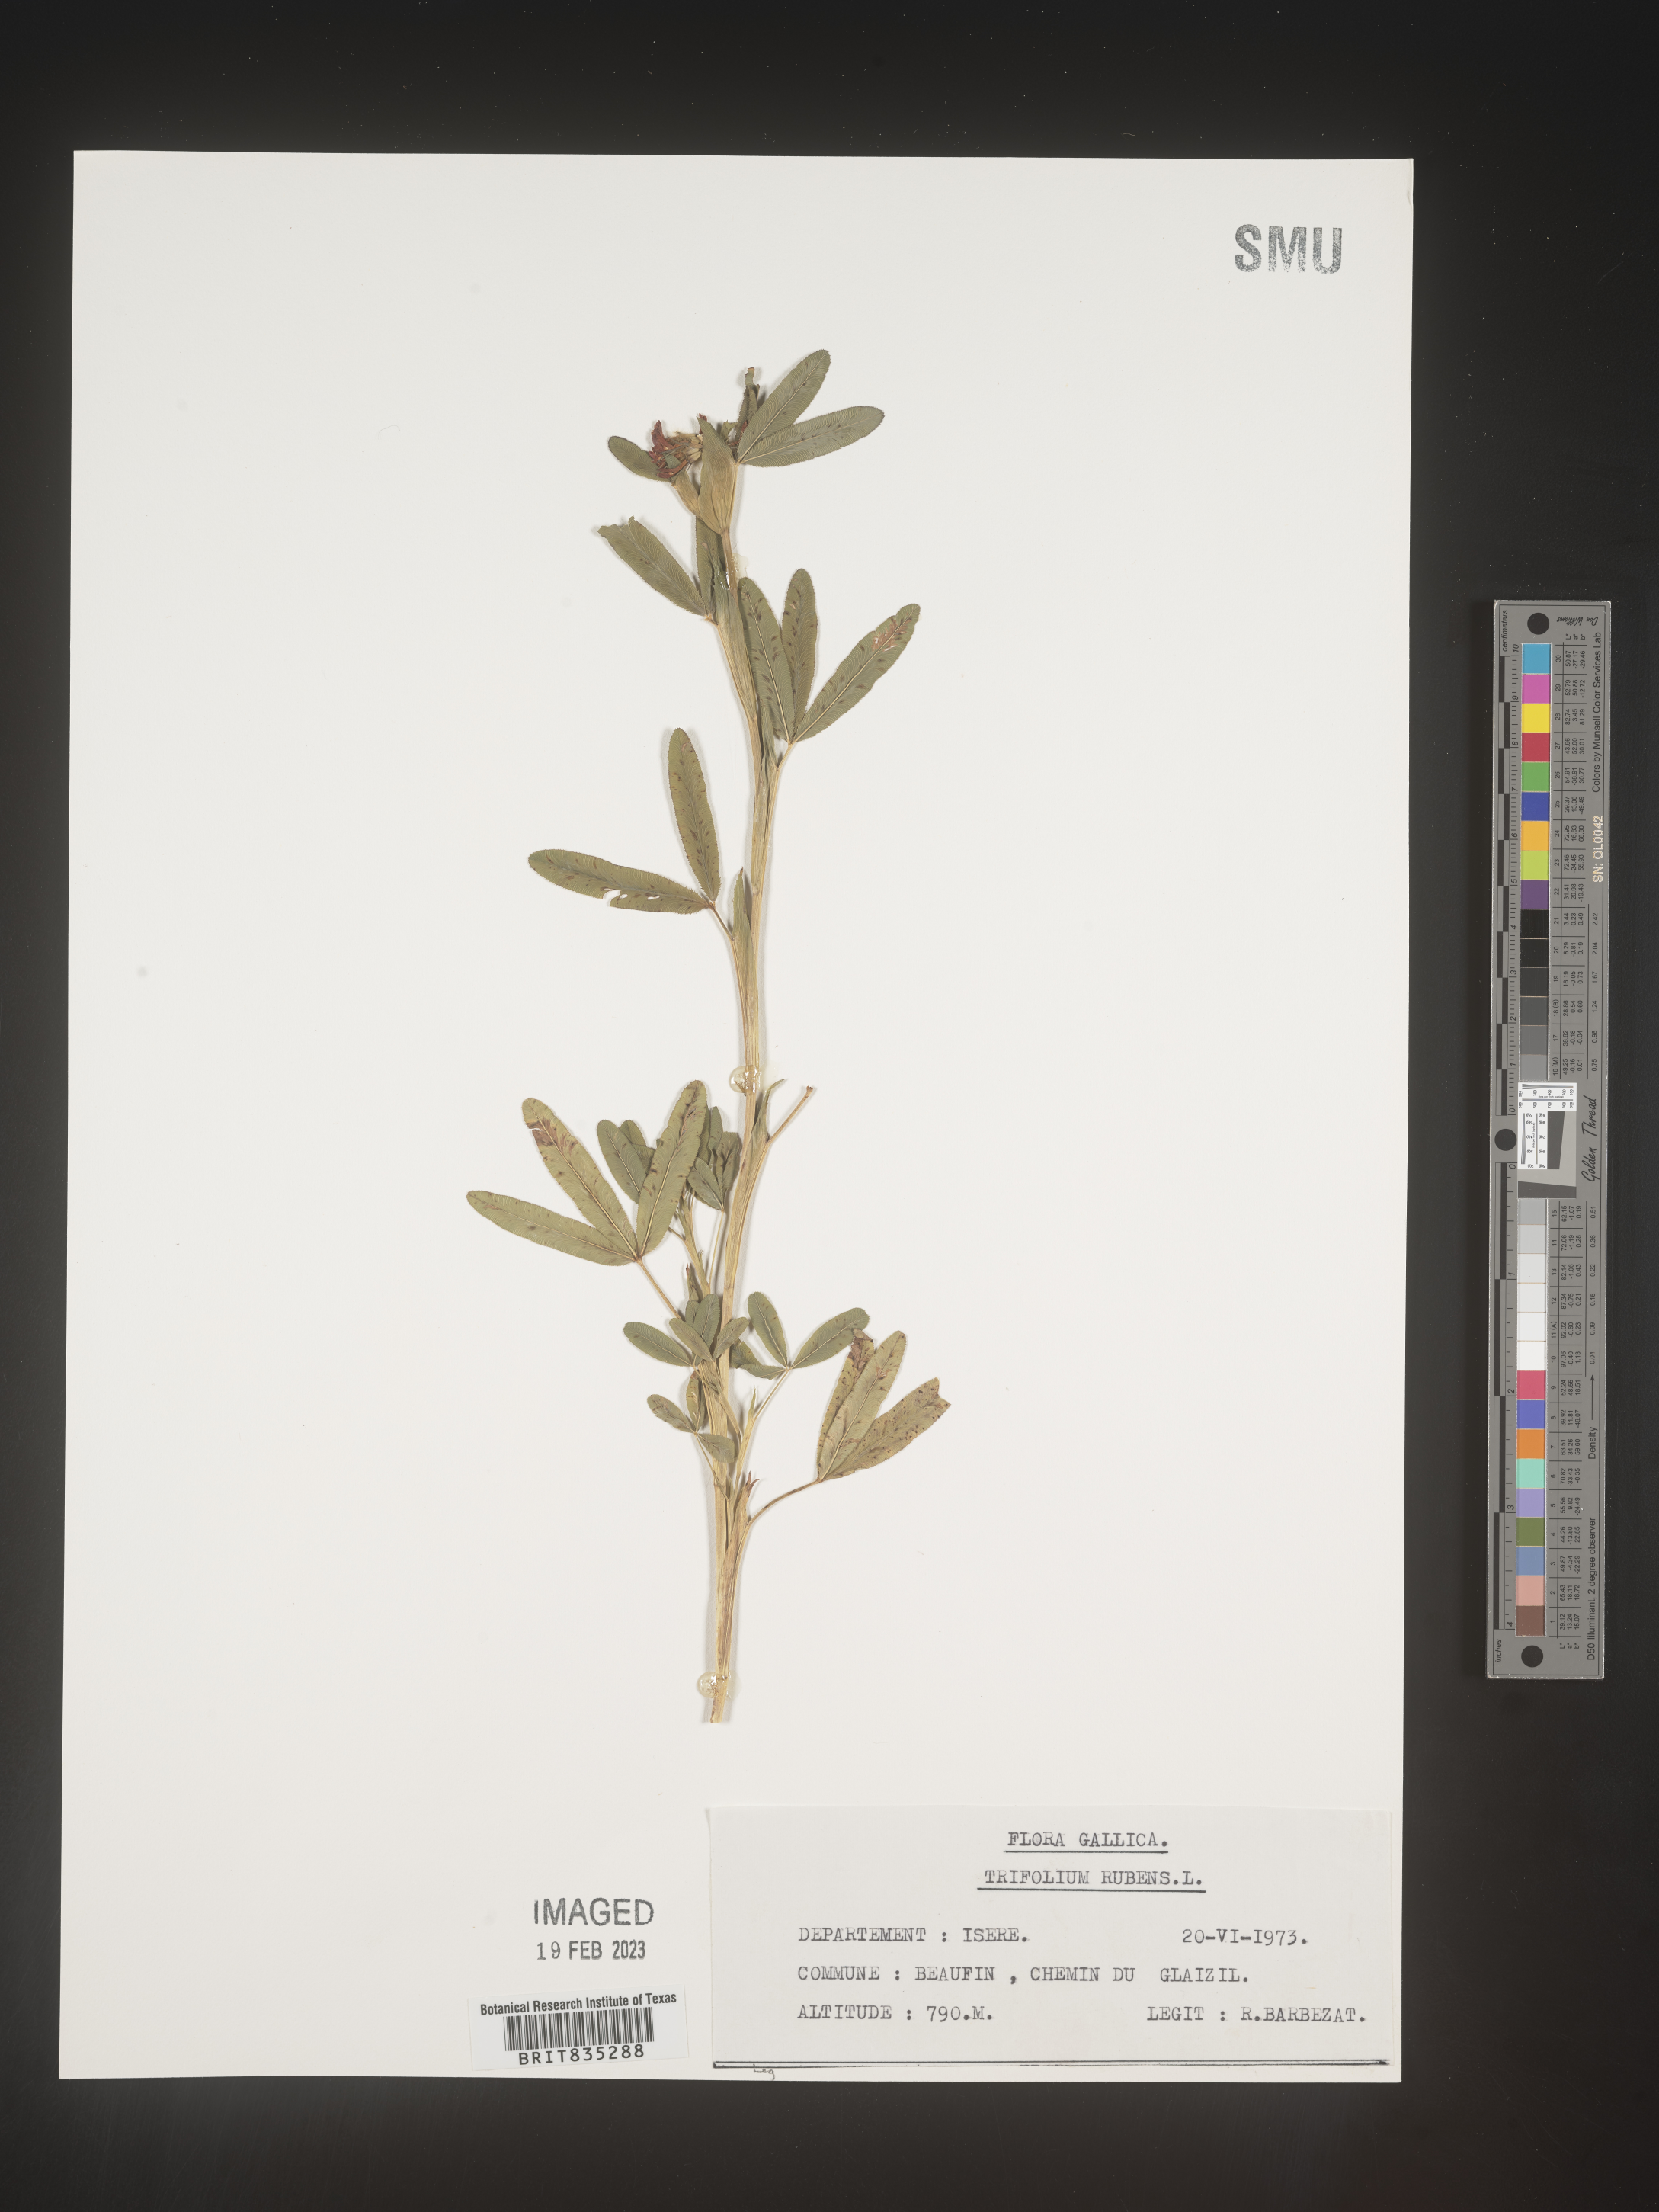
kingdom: Plantae
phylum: Tracheophyta
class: Magnoliopsida
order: Fabales
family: Fabaceae
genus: Trifolium
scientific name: Trifolium
